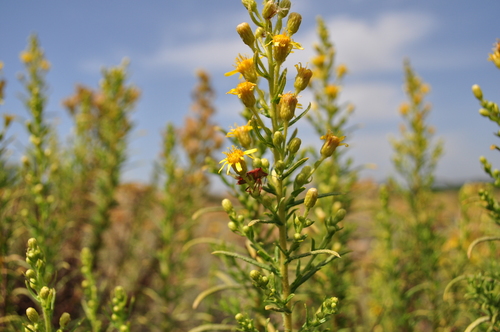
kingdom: Plantae
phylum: Tracheophyta
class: Magnoliopsida
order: Asterales
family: Asteraceae
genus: Dittrichia
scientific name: Dittrichia viscosa
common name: Woody fleabane
